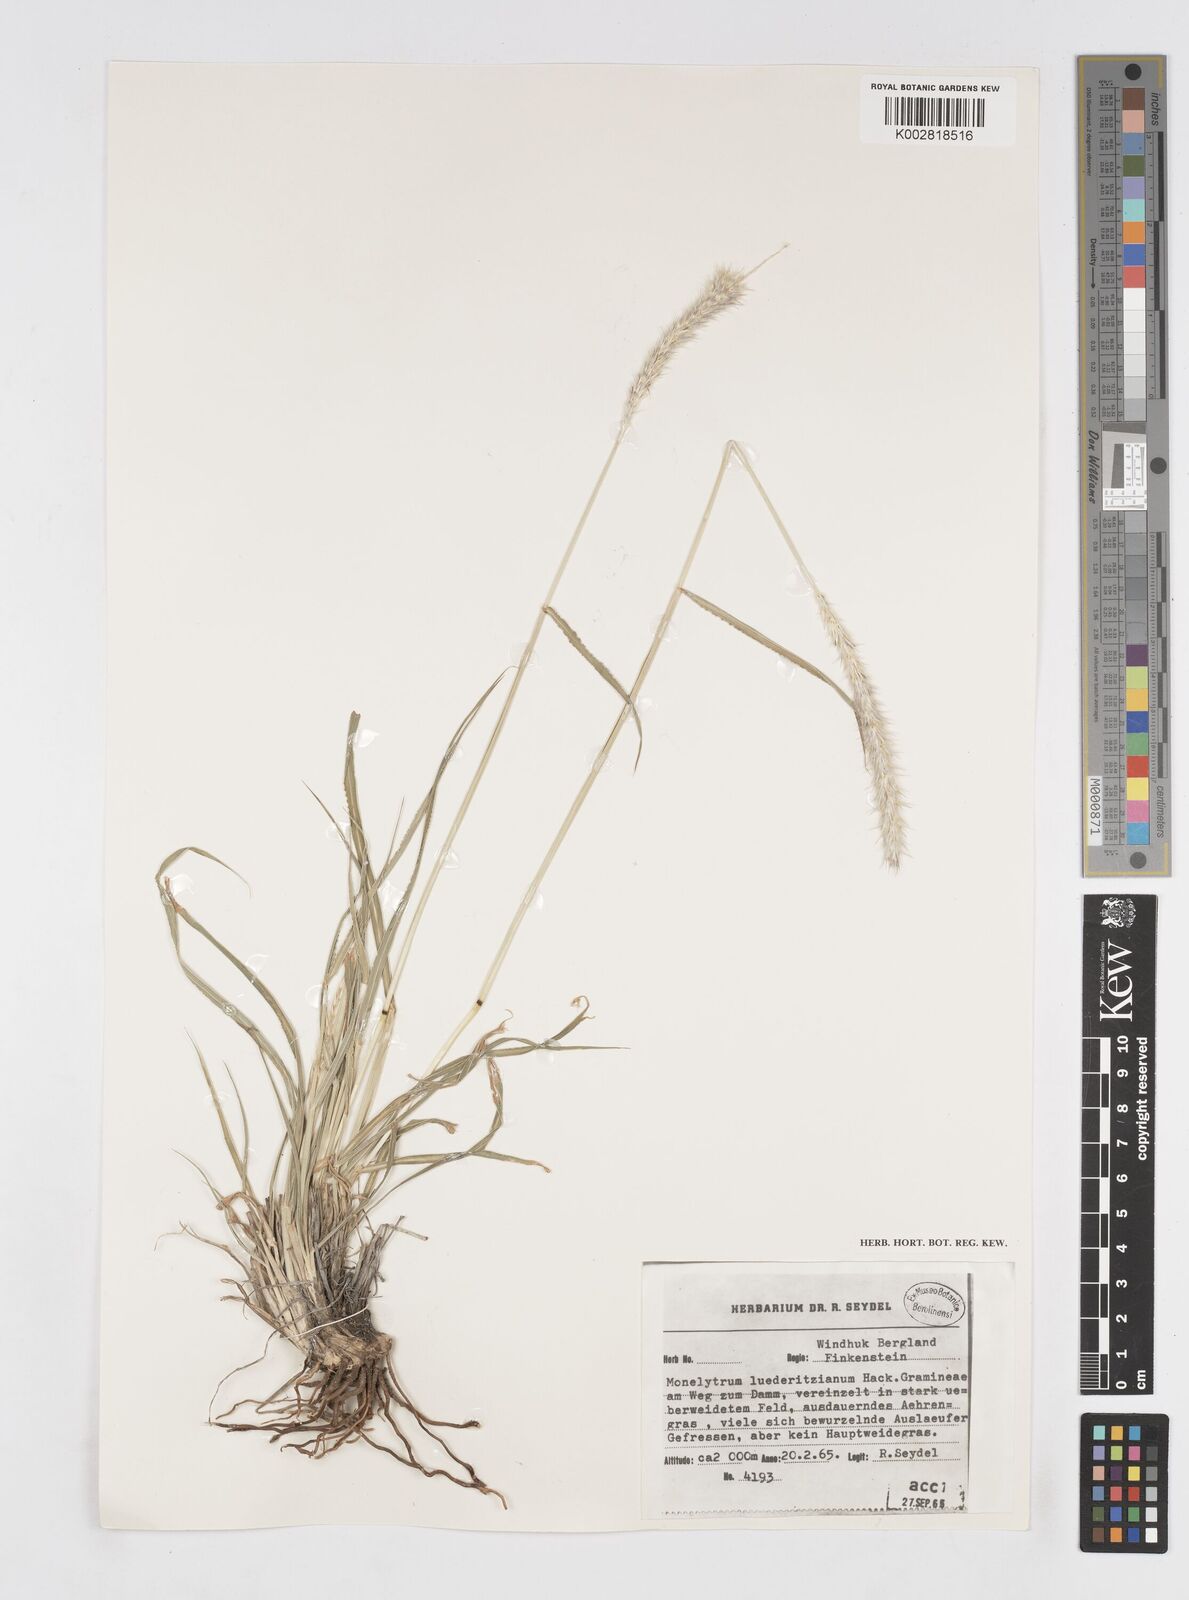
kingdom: Plantae
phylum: Tracheophyta
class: Liliopsida
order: Poales
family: Poaceae
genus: Anthephora
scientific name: Anthephora pubescens
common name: Wool grass
